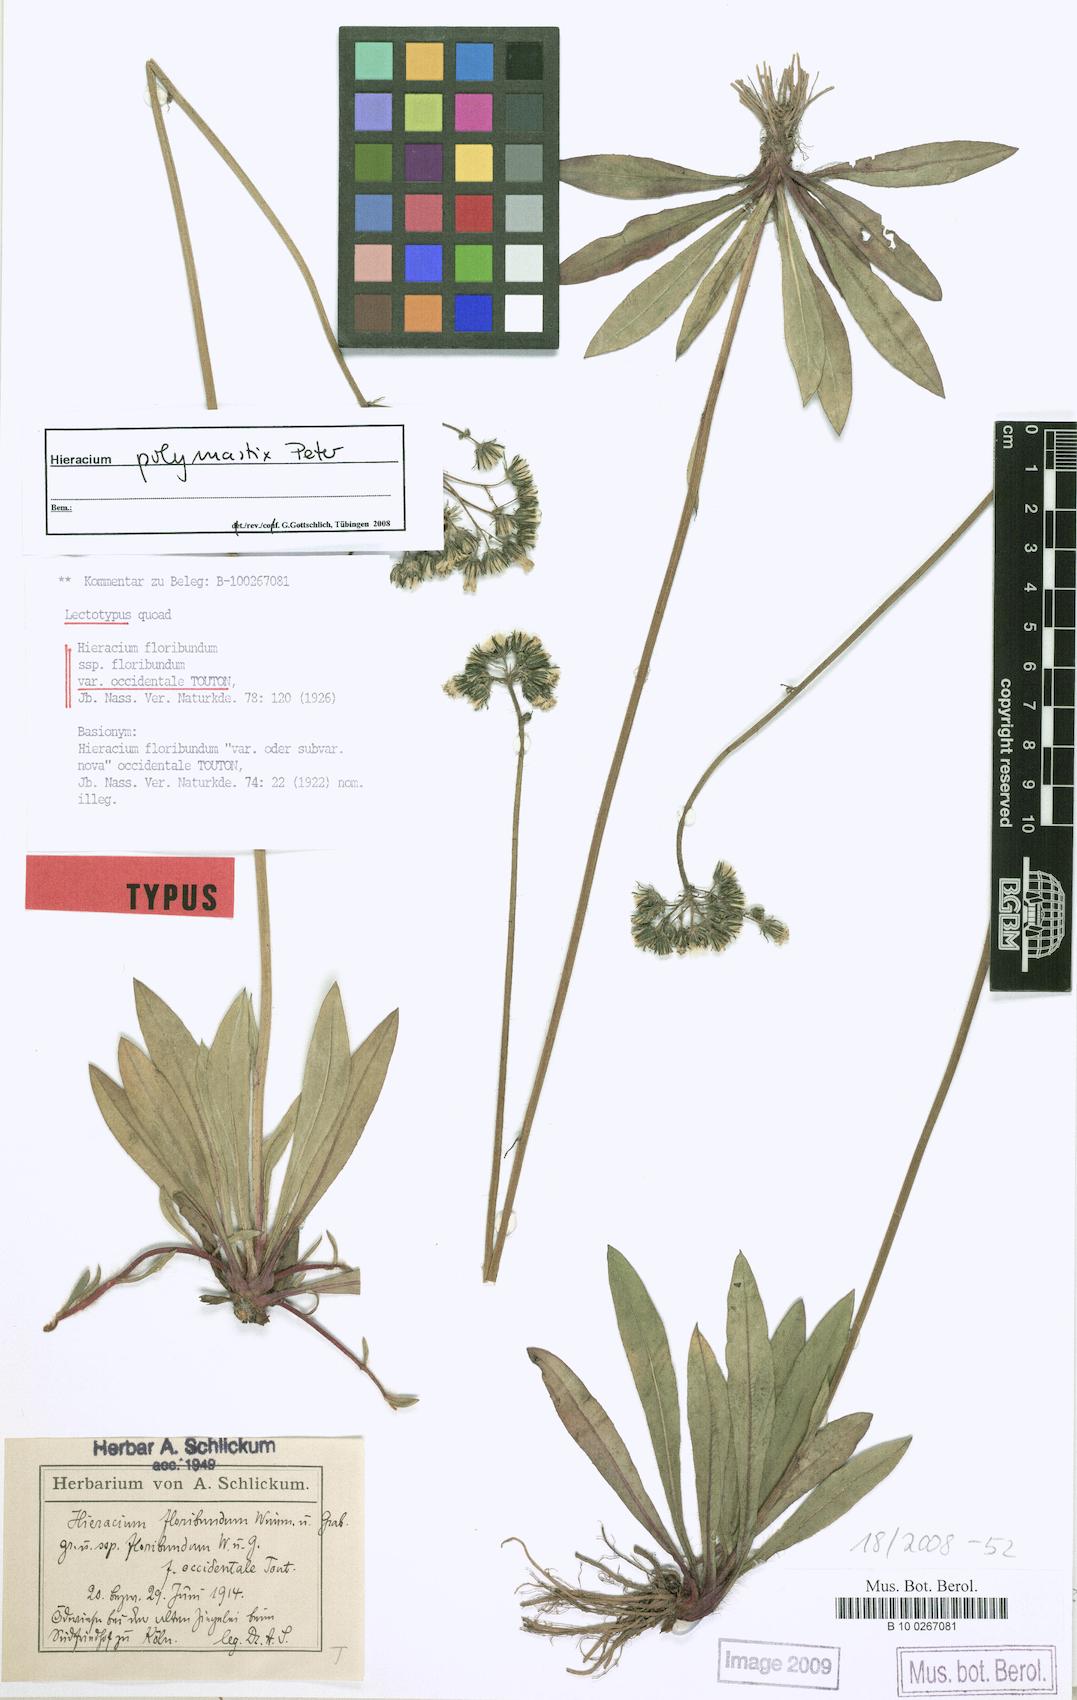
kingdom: Plantae
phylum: Tracheophyta
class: Magnoliopsida
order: Asterales
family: Asteraceae
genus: Pilosella
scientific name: Pilosella polymastix
